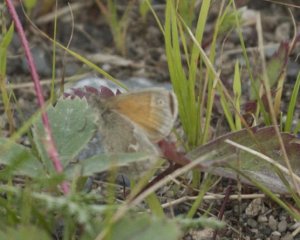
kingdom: Animalia
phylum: Arthropoda
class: Insecta
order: Lepidoptera
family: Nymphalidae
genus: Coenonympha
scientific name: Coenonympha tullia
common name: Large Heath
